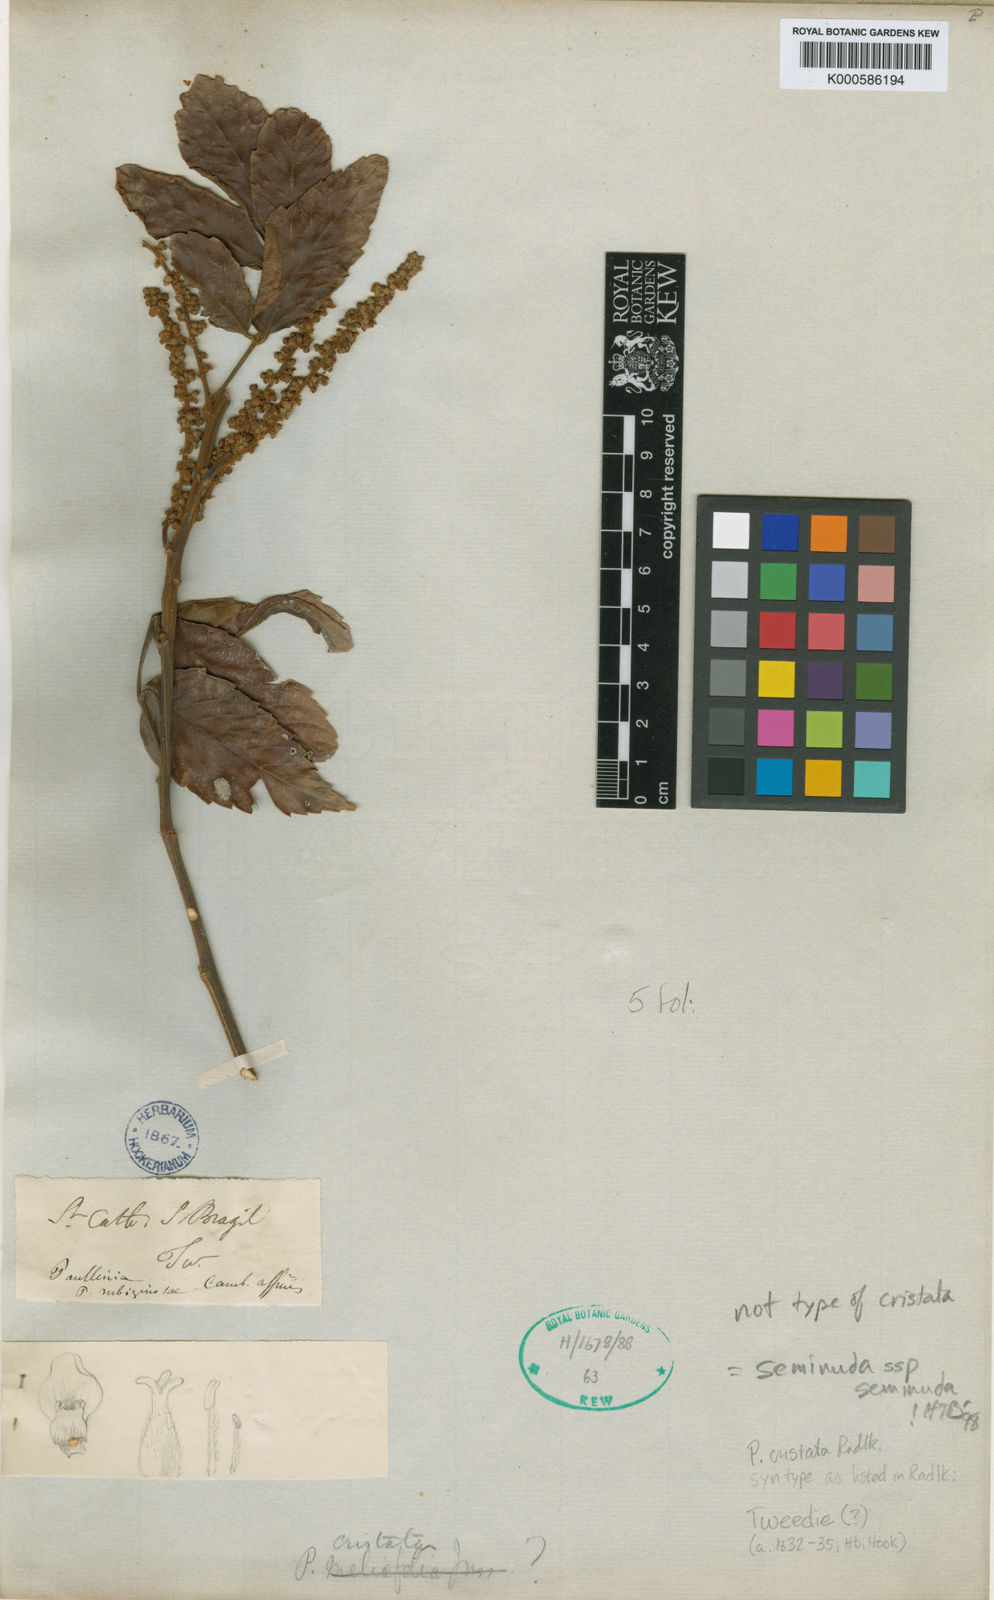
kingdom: Plantae
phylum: Tracheophyta
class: Magnoliopsida
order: Sapindales
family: Sapindaceae
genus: Paullinia
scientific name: Paullinia cristata
